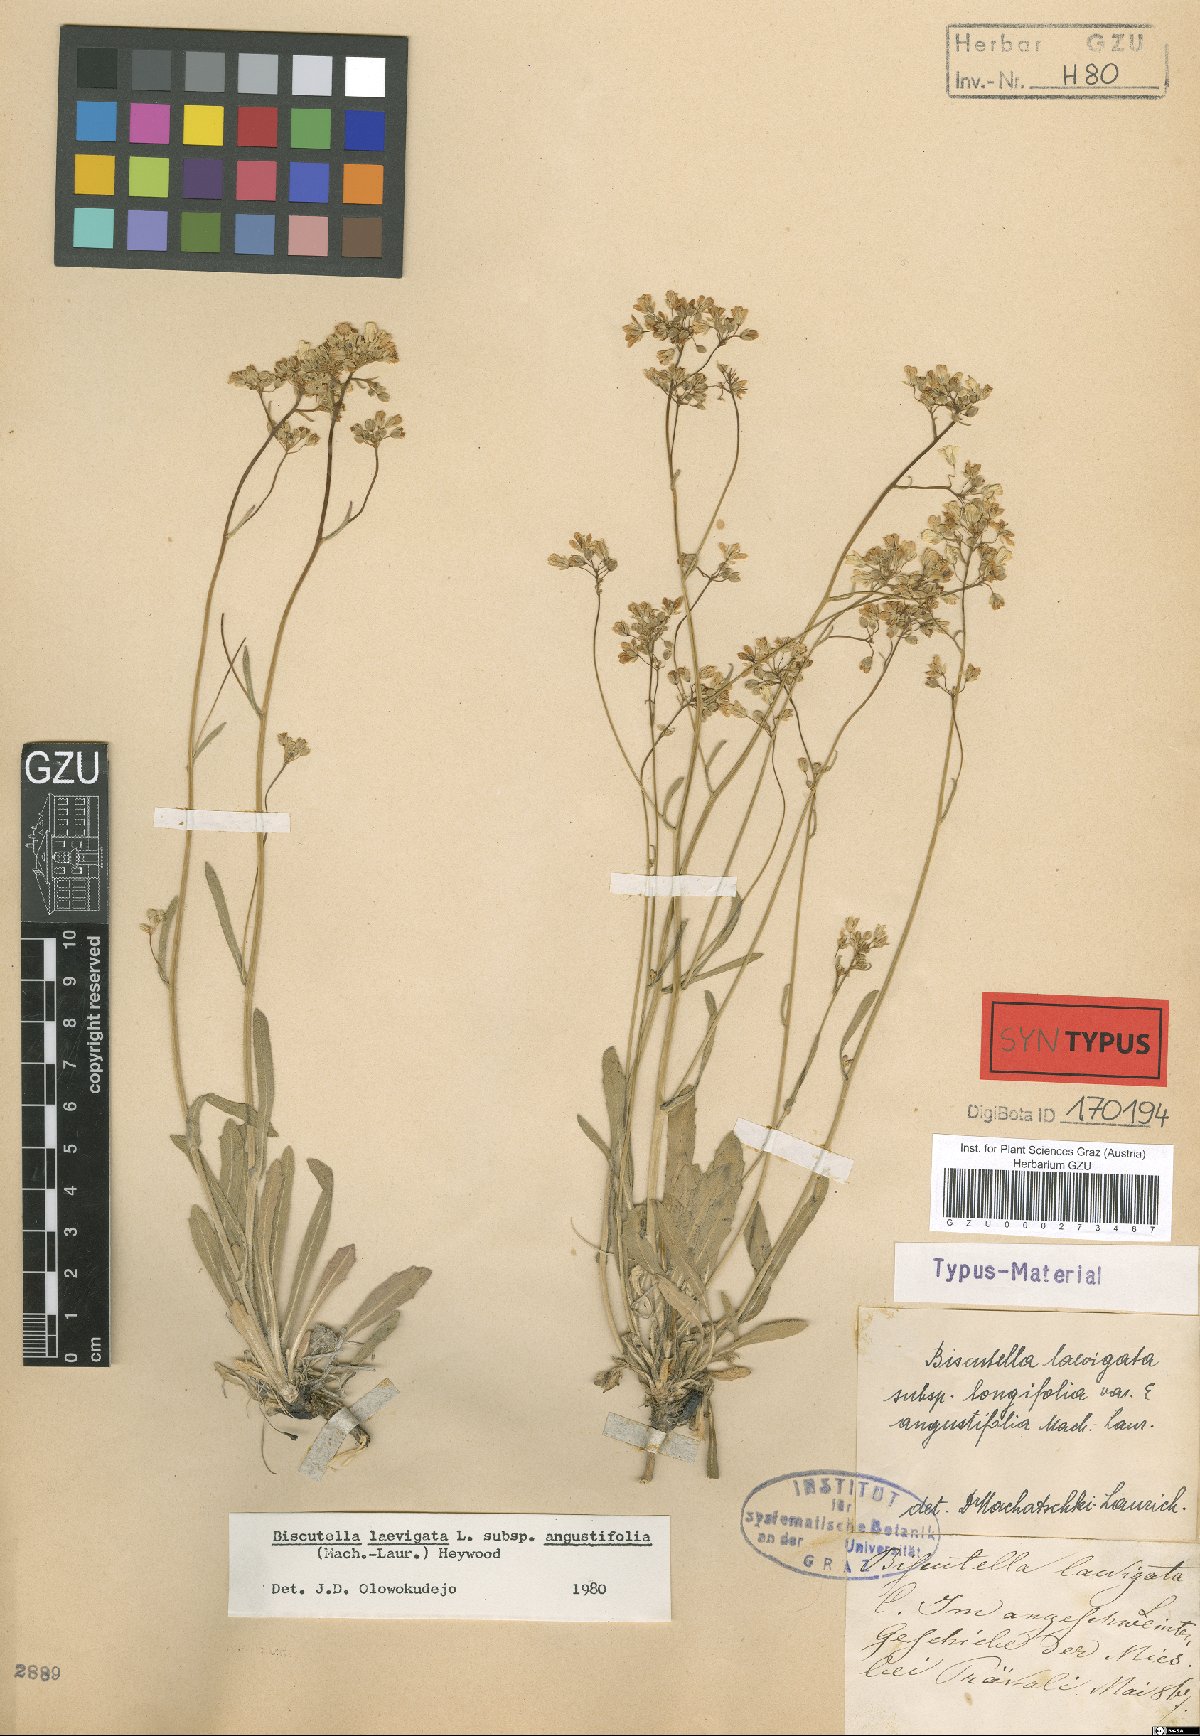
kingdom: Plantae
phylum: Tracheophyta
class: Magnoliopsida
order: Brassicales
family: Brassicaceae
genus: Biscutella
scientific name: Biscutella laevigata
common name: Buckler mustard
